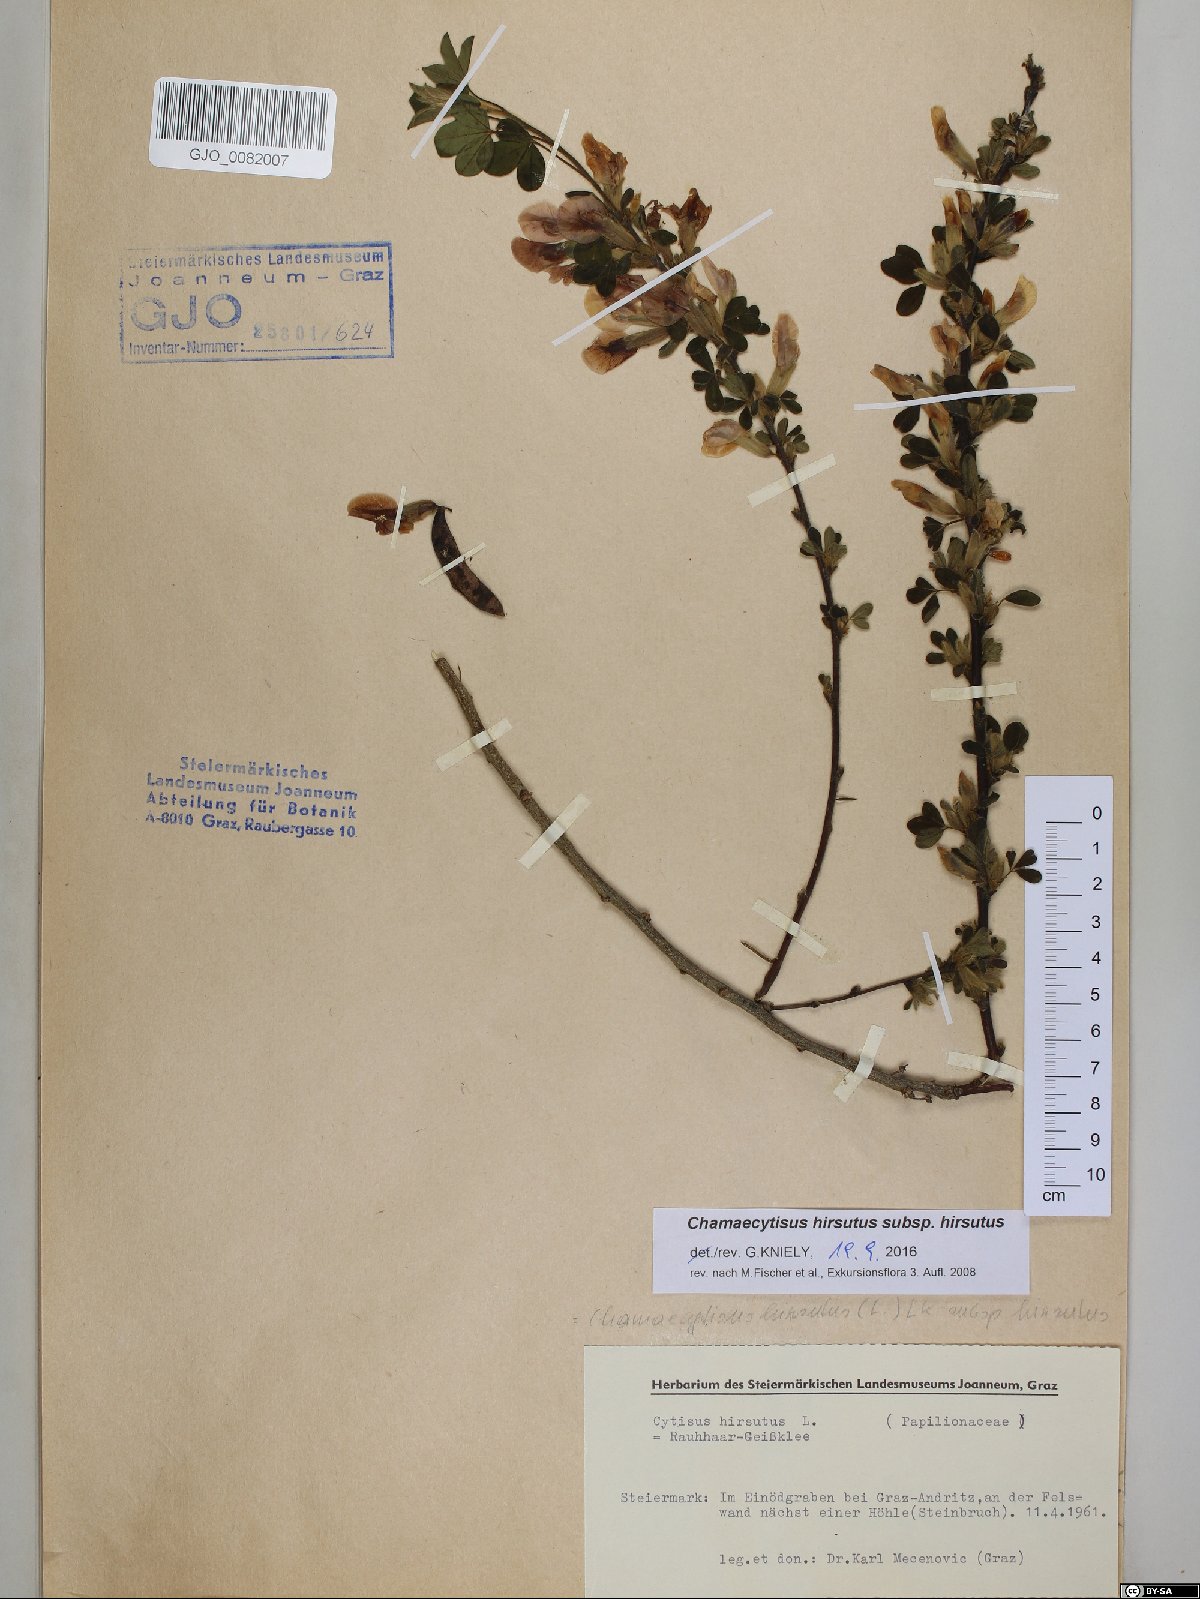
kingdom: Plantae
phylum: Tracheophyta
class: Magnoliopsida
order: Fabales
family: Fabaceae
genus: Chamaecytisus
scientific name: Chamaecytisus hirsutus
